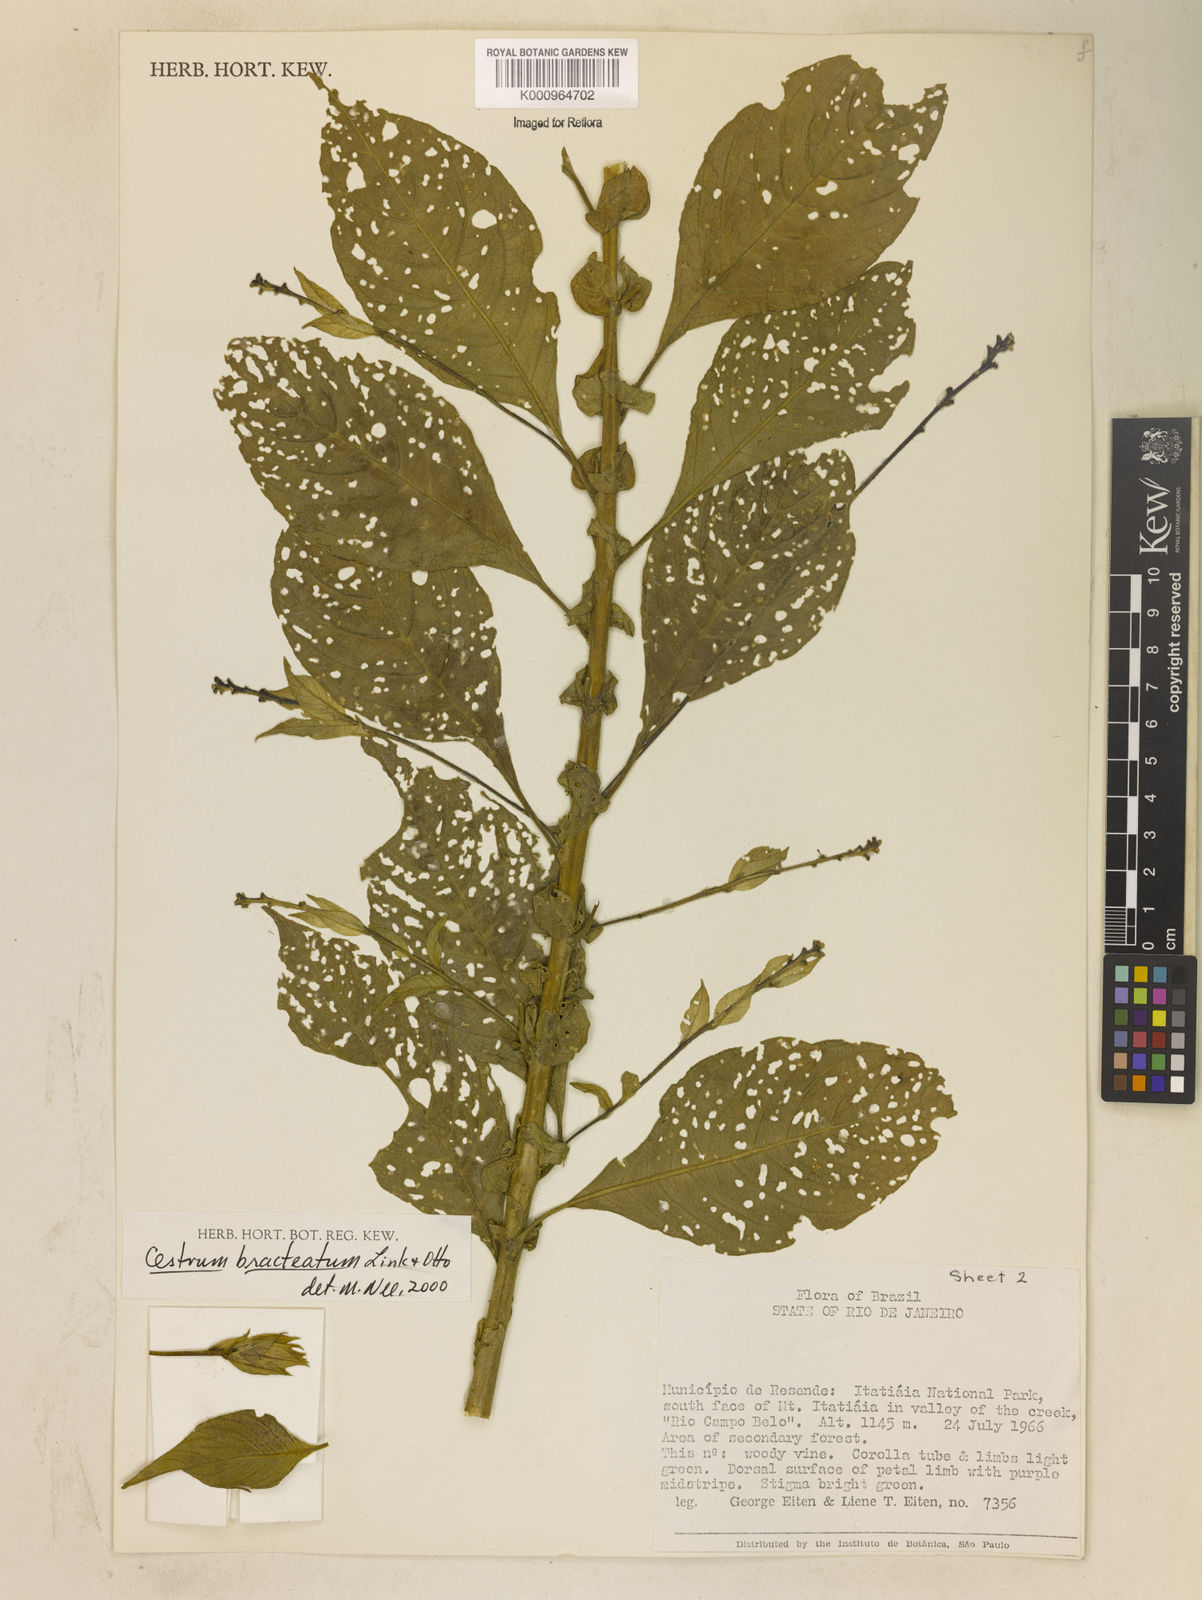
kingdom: Plantae
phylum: Tracheophyta
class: Magnoliopsida
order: Solanales
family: Solanaceae
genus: Cestrum
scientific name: Cestrum bracteatum
